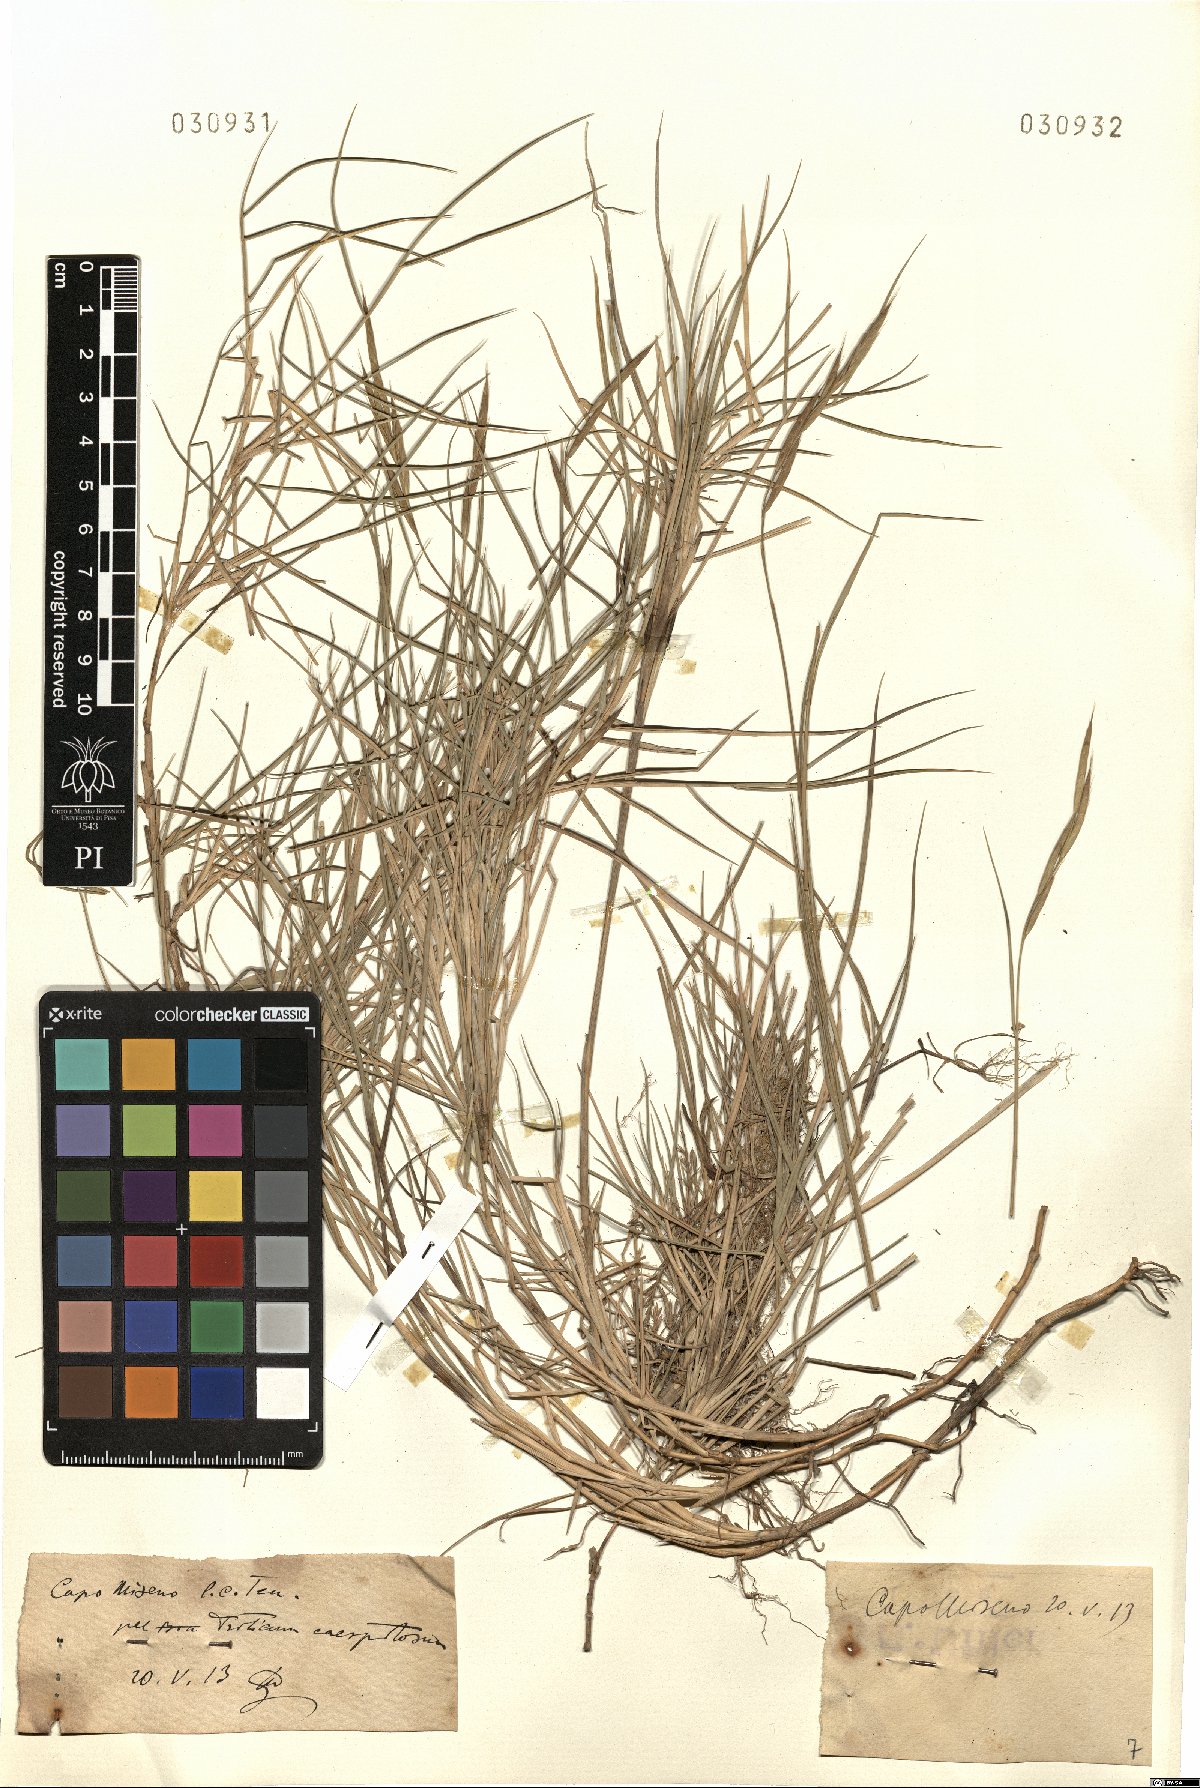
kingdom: Plantae
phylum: Tracheophyta
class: Liliopsida
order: Poales
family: Poaceae
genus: Brachypodium
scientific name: Brachypodium retusum
